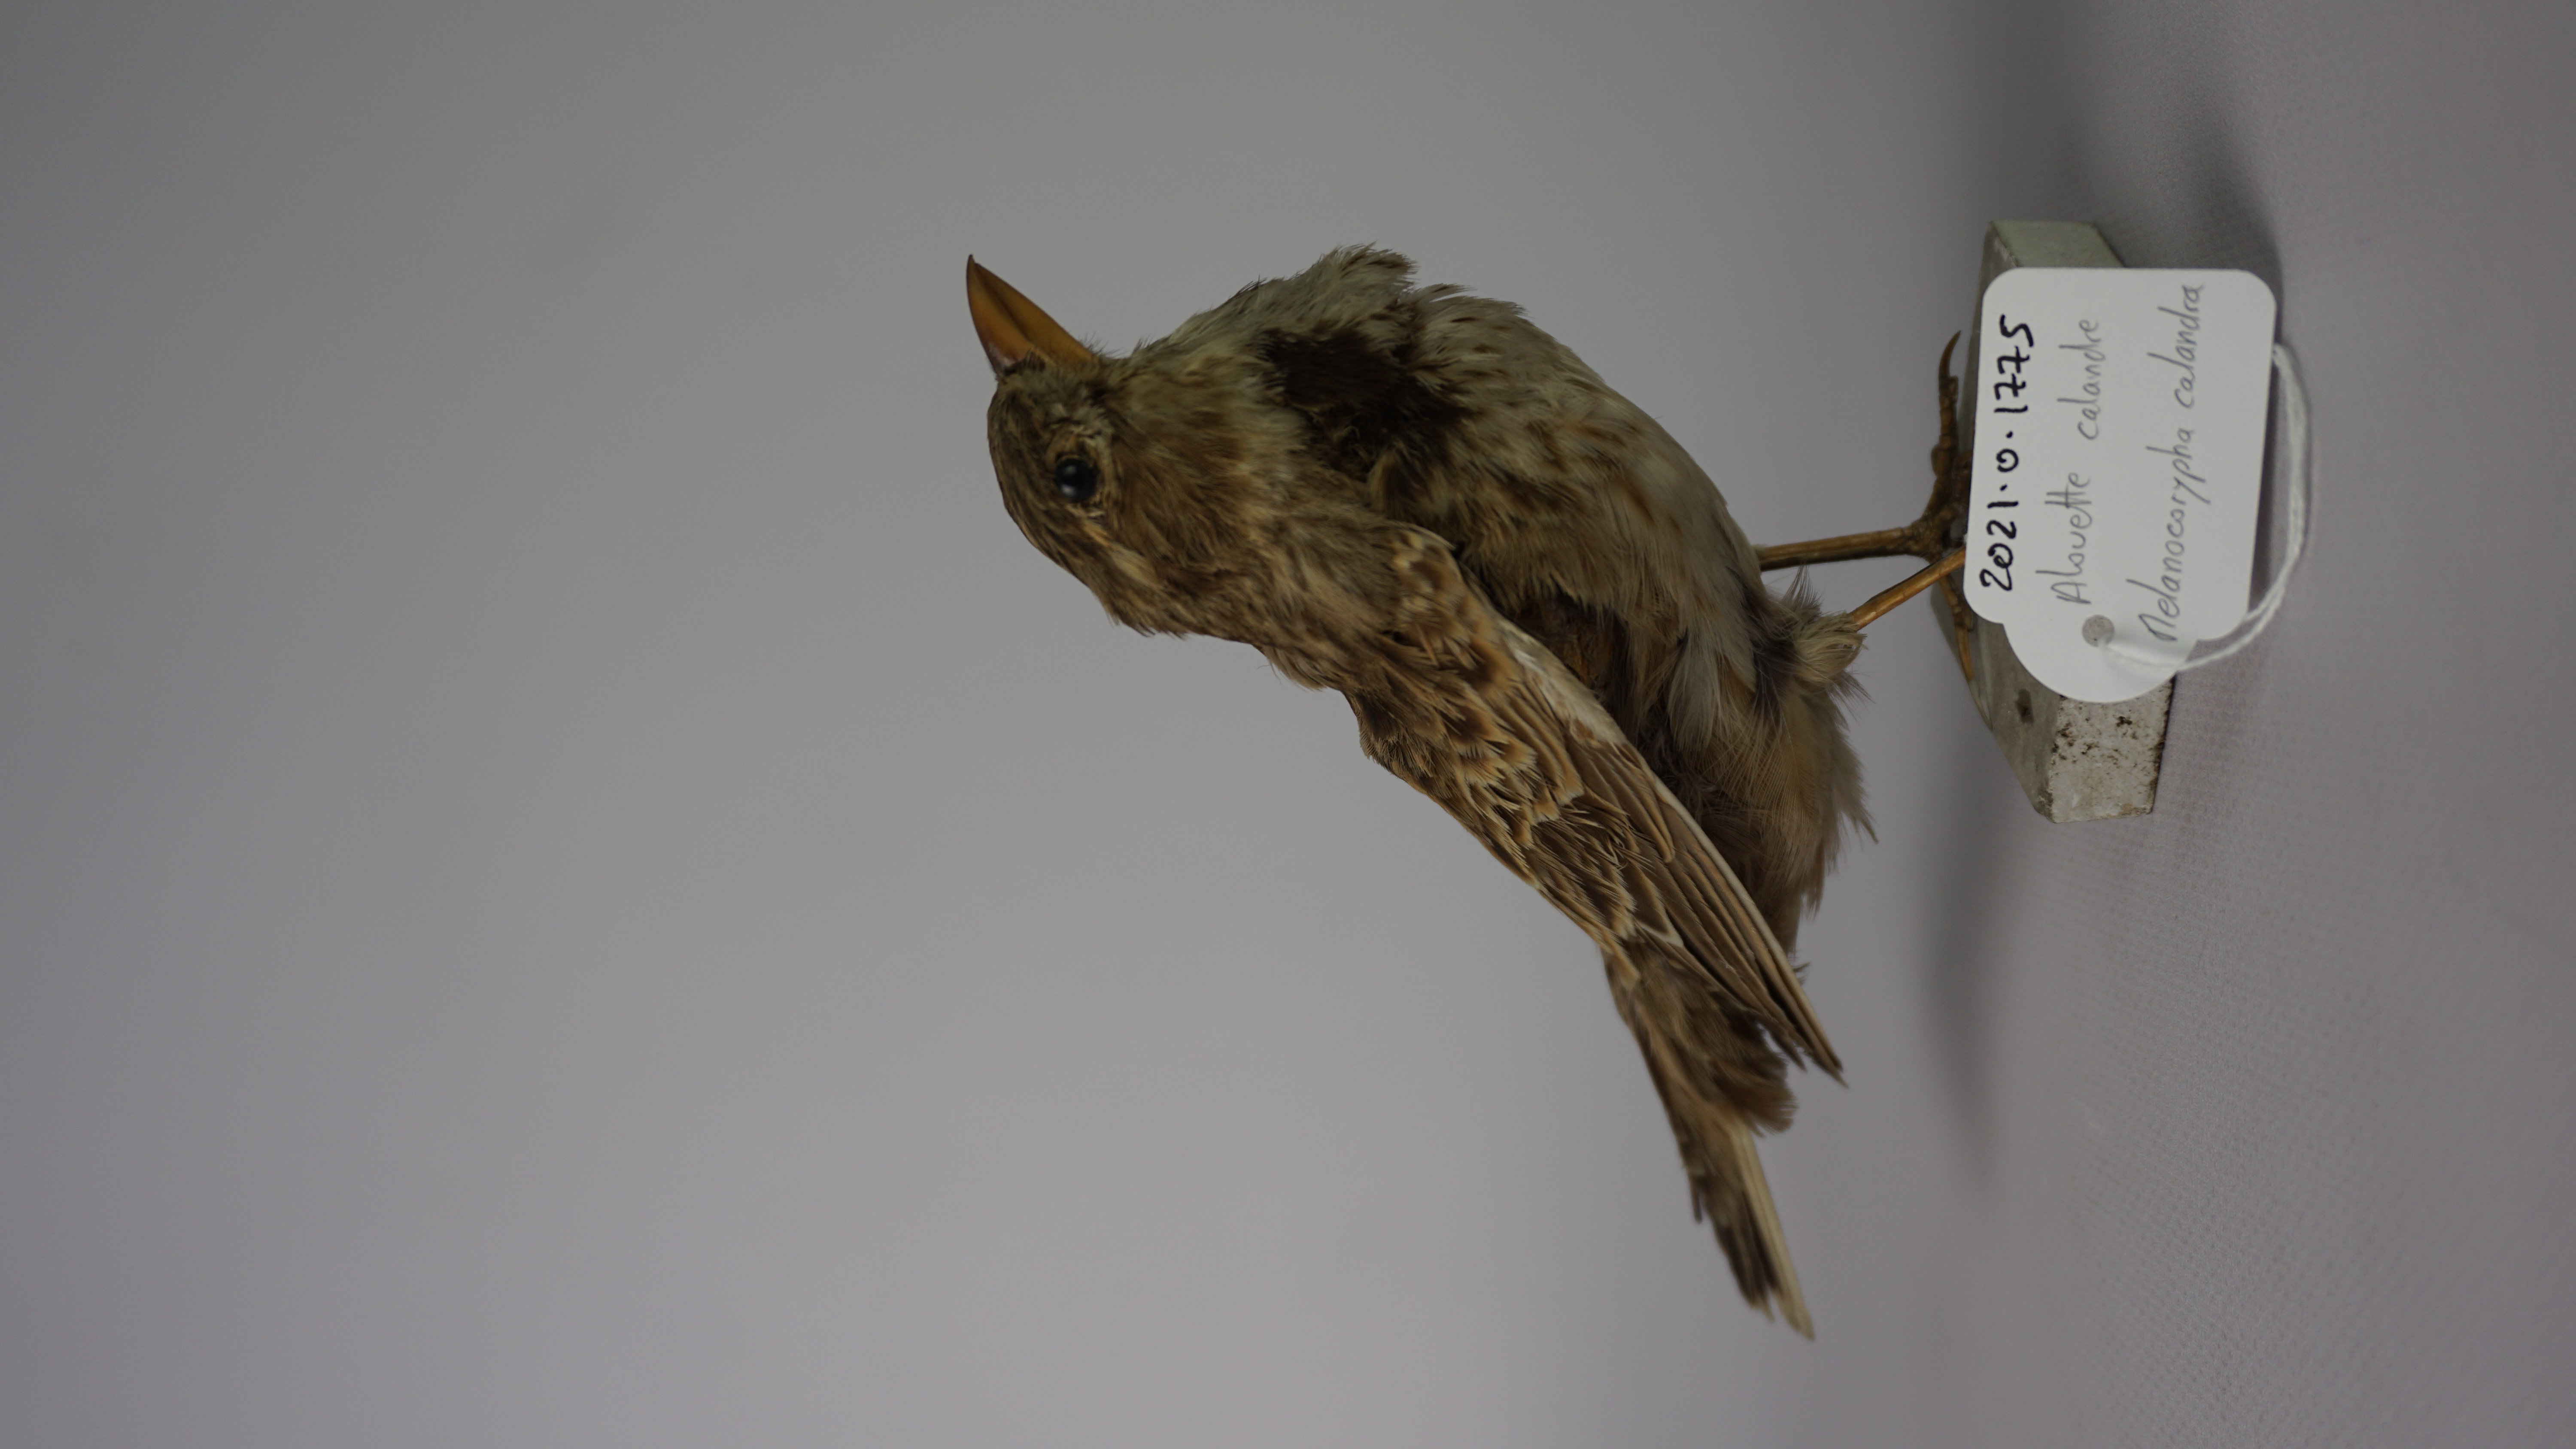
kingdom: Animalia
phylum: Chordata
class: Aves
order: Passeriformes
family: Alaudidae
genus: Melanocorypha
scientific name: Melanocorypha calandra
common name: Calandra lark
